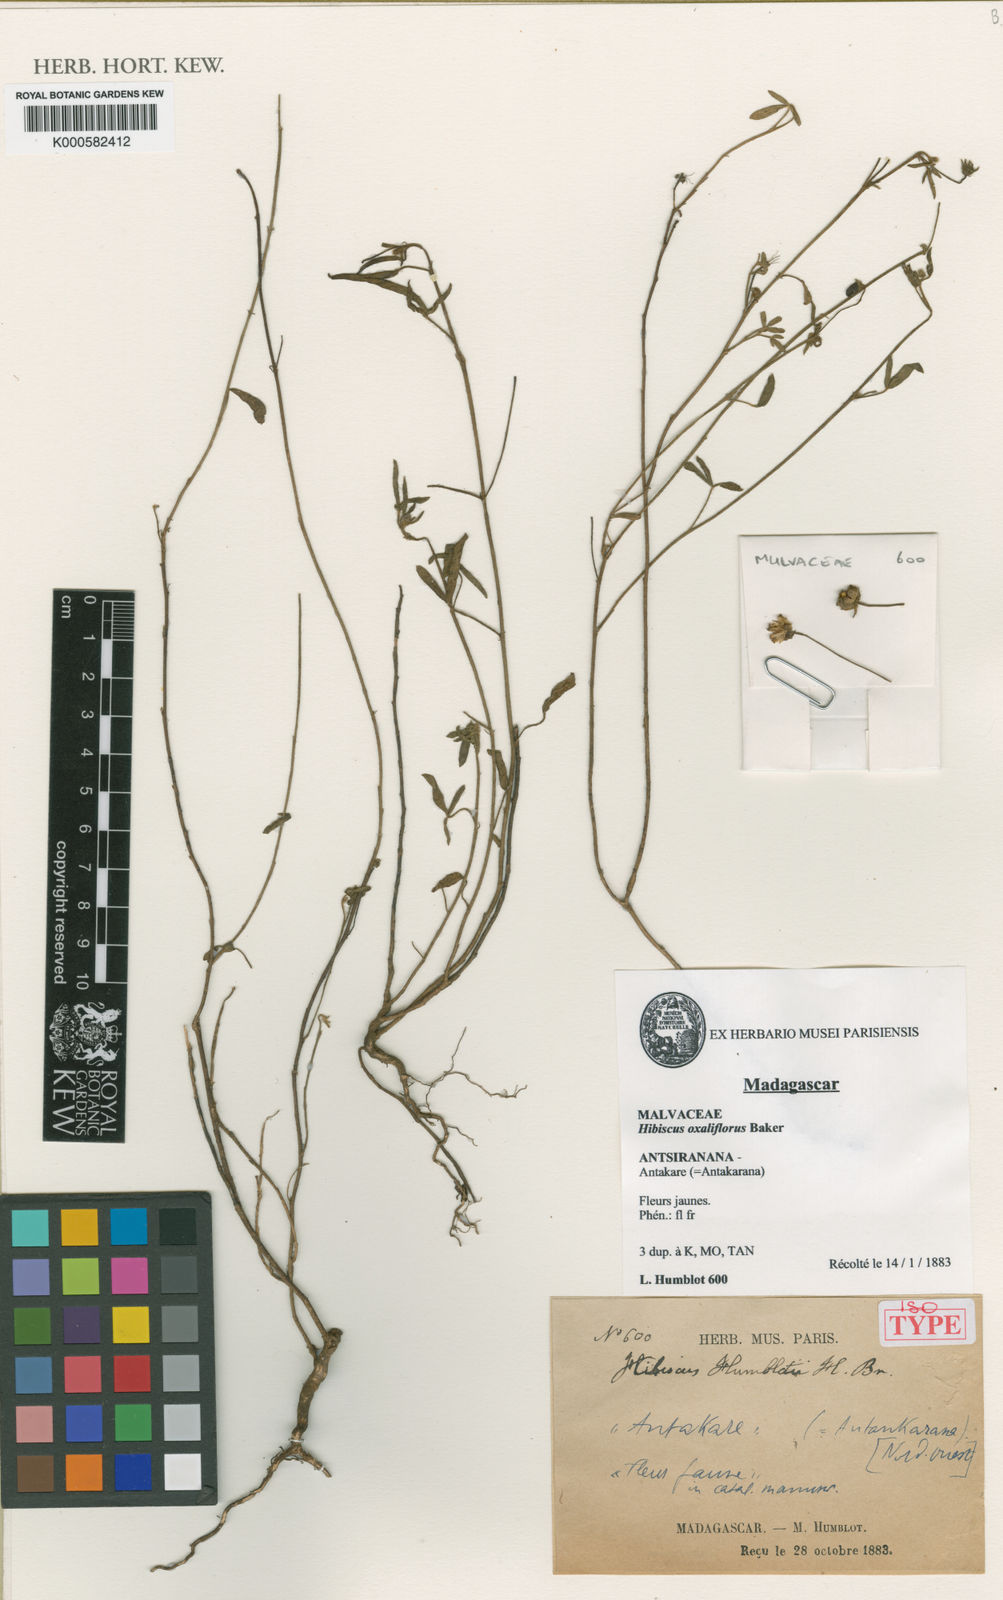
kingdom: Plantae
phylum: Tracheophyta
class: Magnoliopsida
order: Malvales
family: Malvaceae
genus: Hibiscus
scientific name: Hibiscus oxaliflorus
